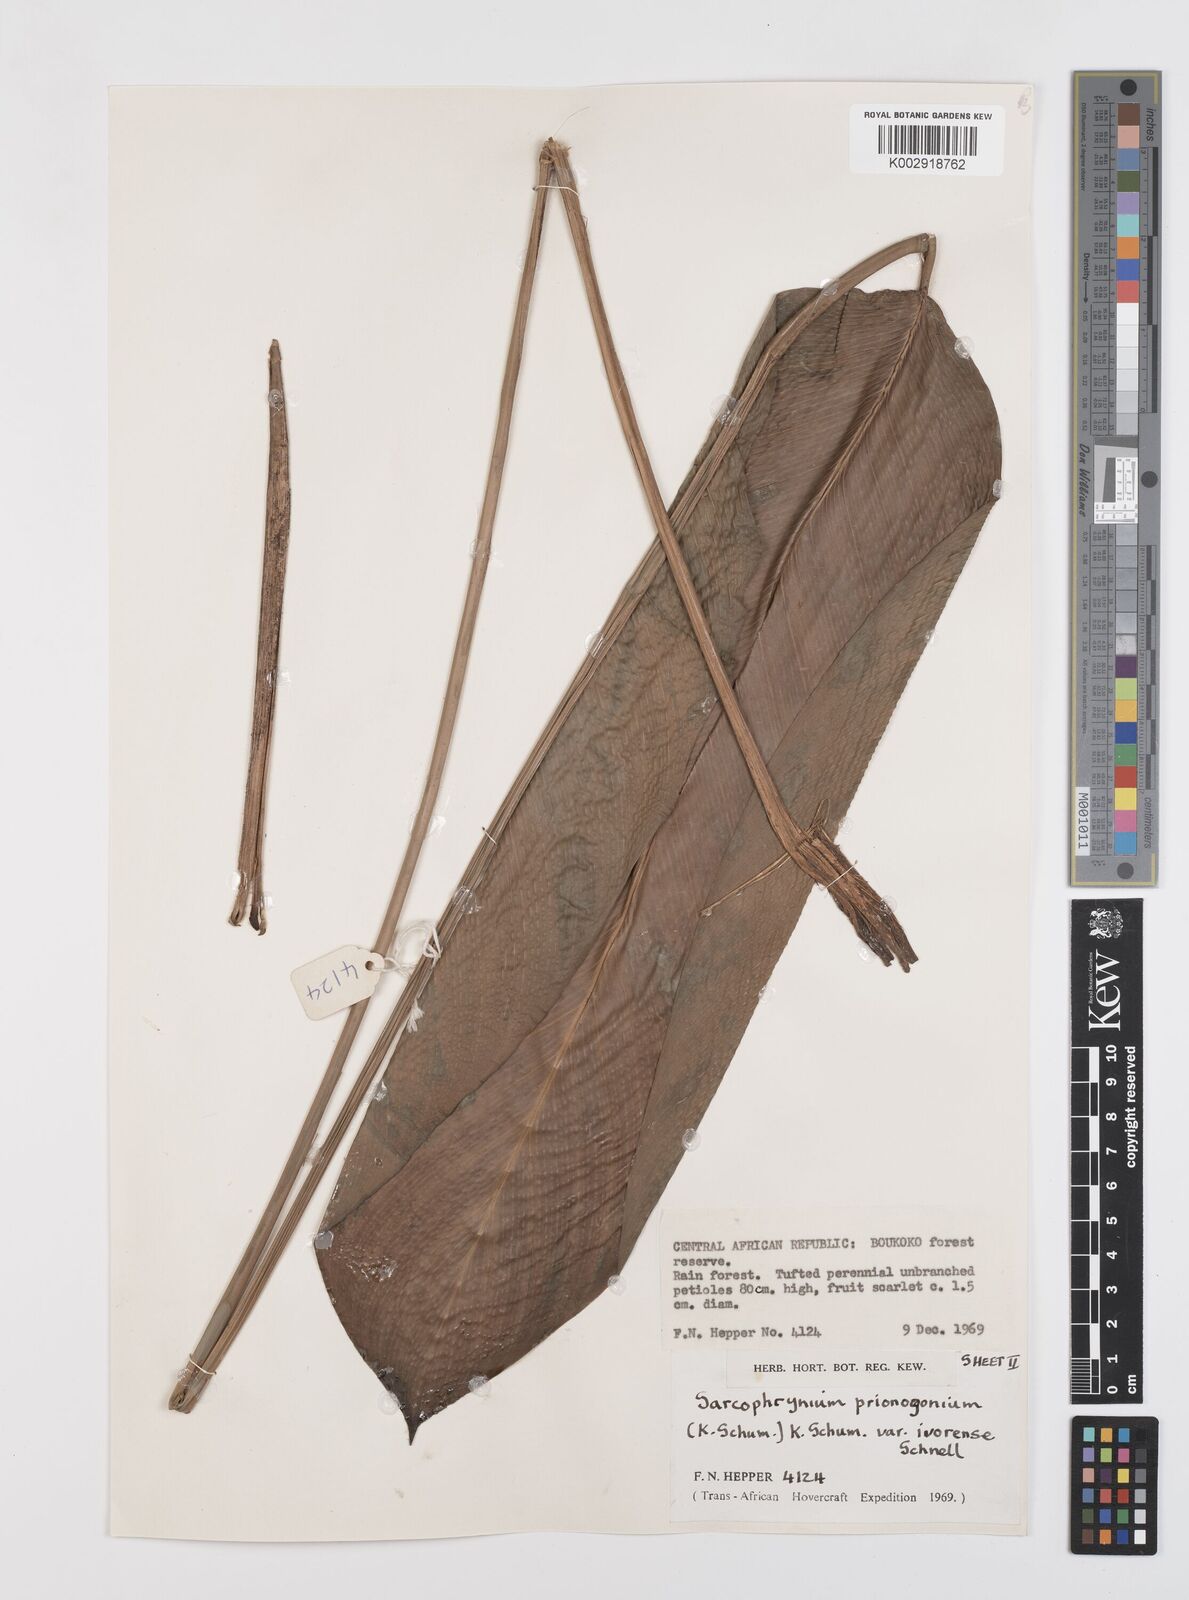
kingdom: Plantae
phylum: Tracheophyta
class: Liliopsida
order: Zingiberales
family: Marantaceae
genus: Sarcophrynium
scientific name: Sarcophrynium prionogonium
